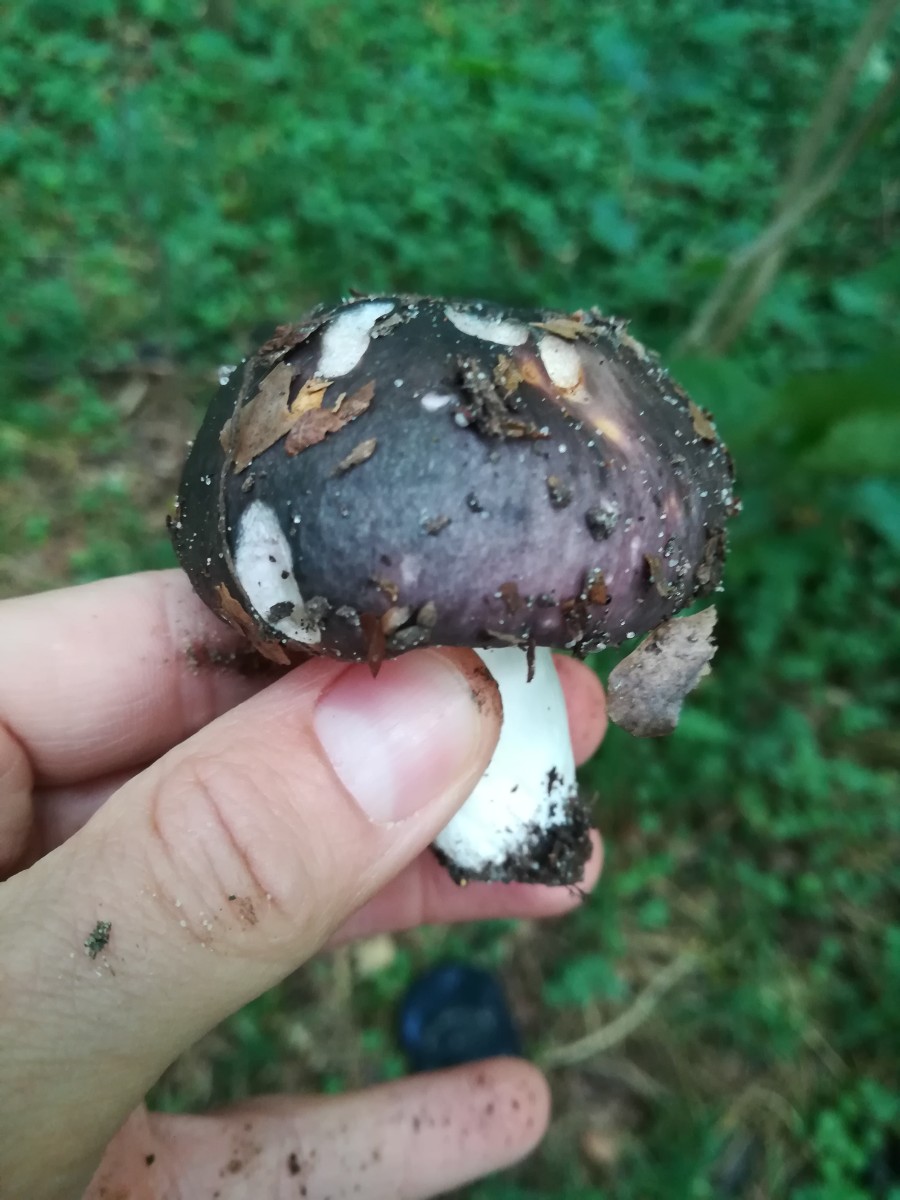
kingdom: Fungi
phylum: Basidiomycota
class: Agaricomycetes
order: Russulales
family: Russulaceae
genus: Russula
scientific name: Russula cyanoxantha
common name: broget skørhat
